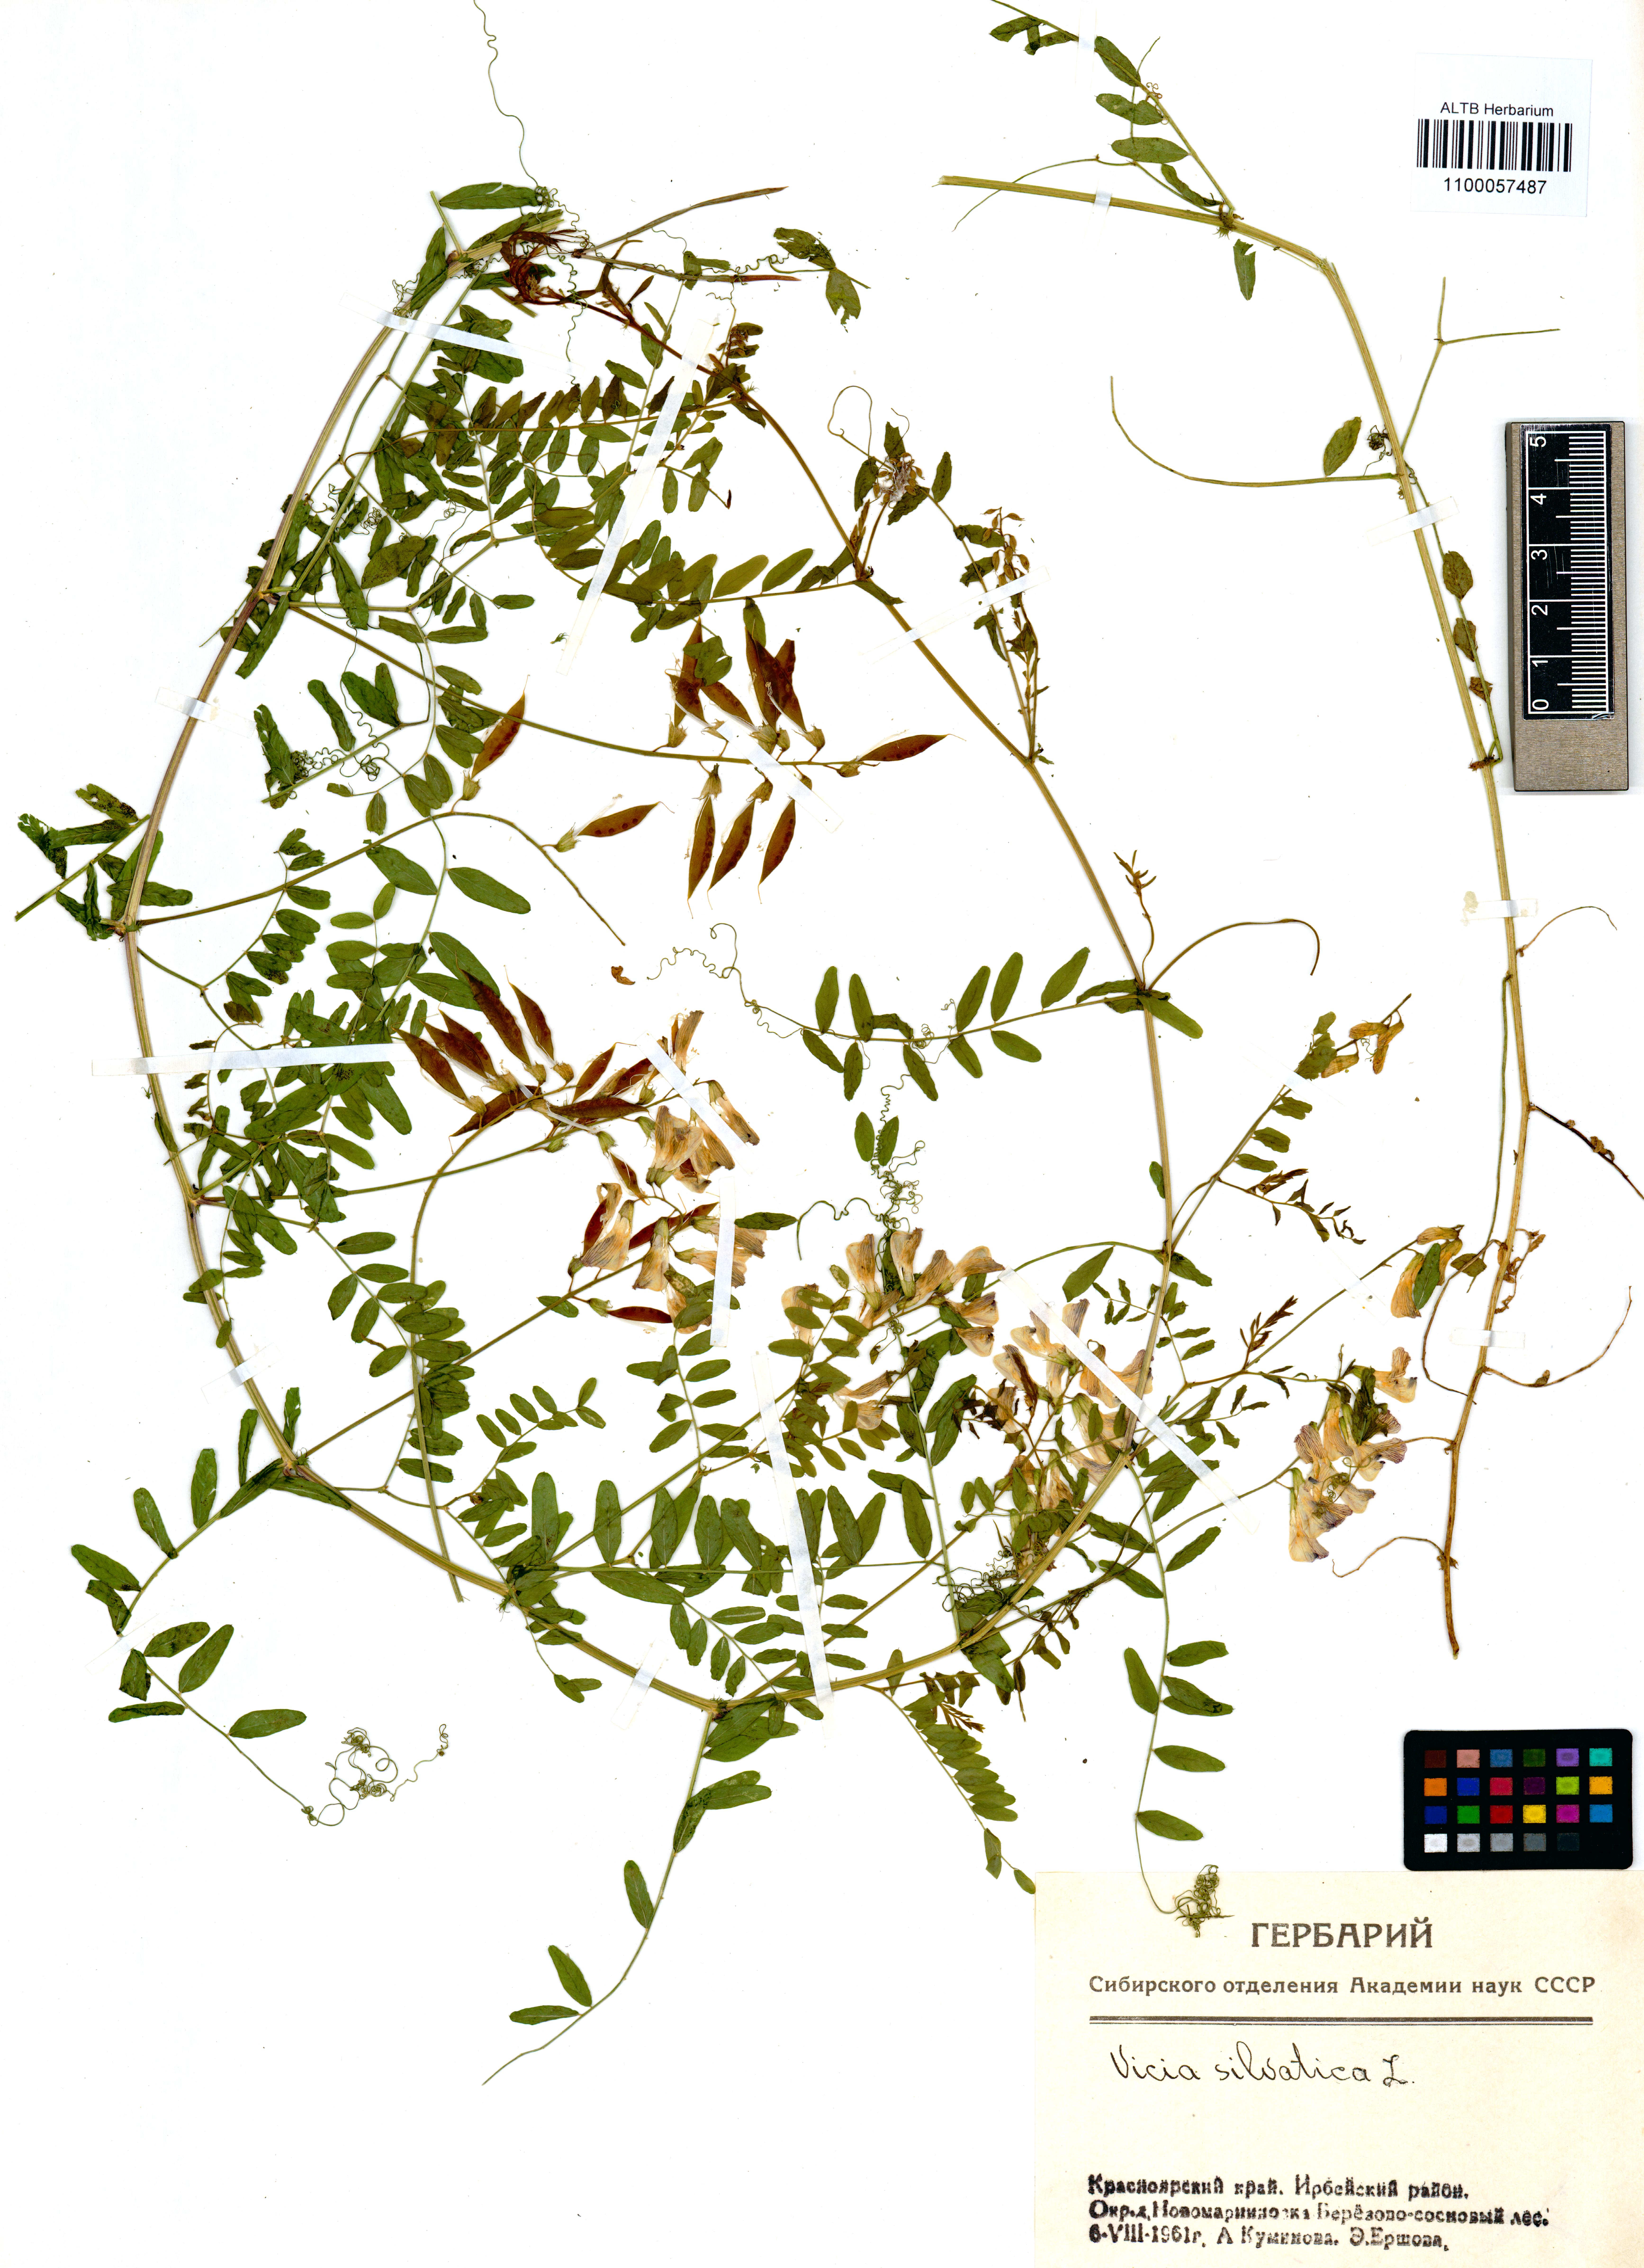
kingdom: Plantae
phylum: Tracheophyta
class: Magnoliopsida
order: Fabales
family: Fabaceae
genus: Vicia
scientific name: Vicia sylvatica
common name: Wood vetch
